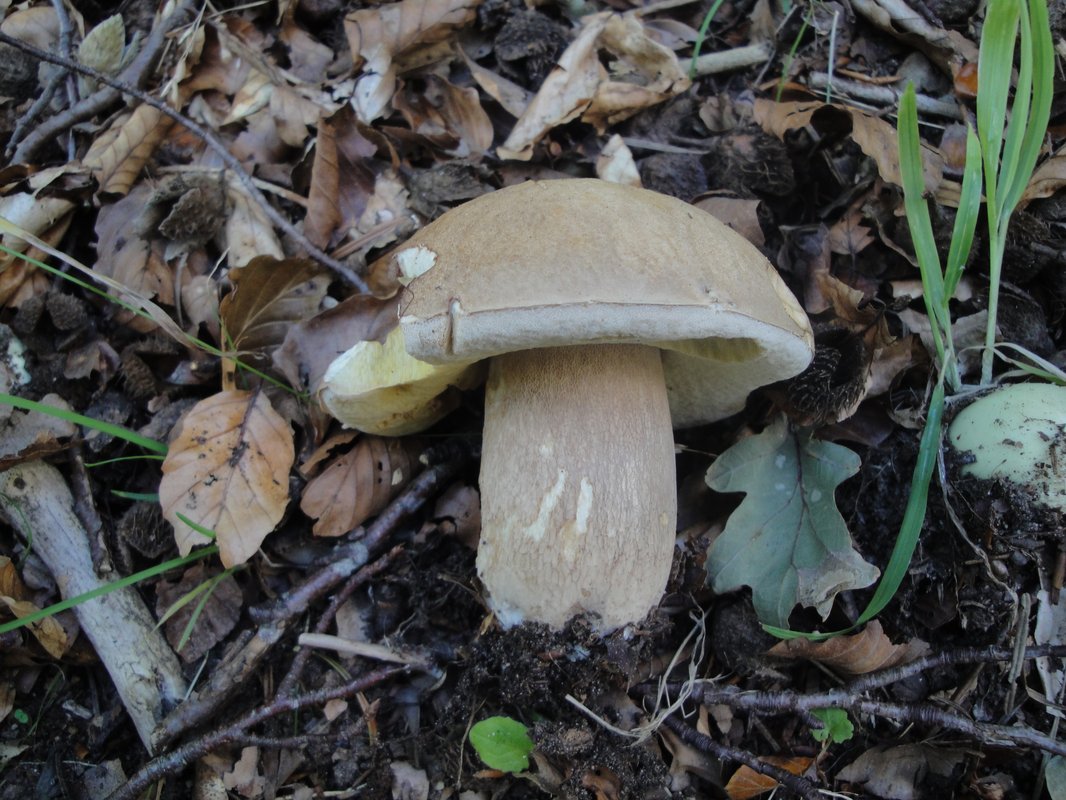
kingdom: Fungi
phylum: Basidiomycota
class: Agaricomycetes
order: Boletales
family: Boletaceae
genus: Boletus
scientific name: Boletus reticulatus
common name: sommer-rørhat
